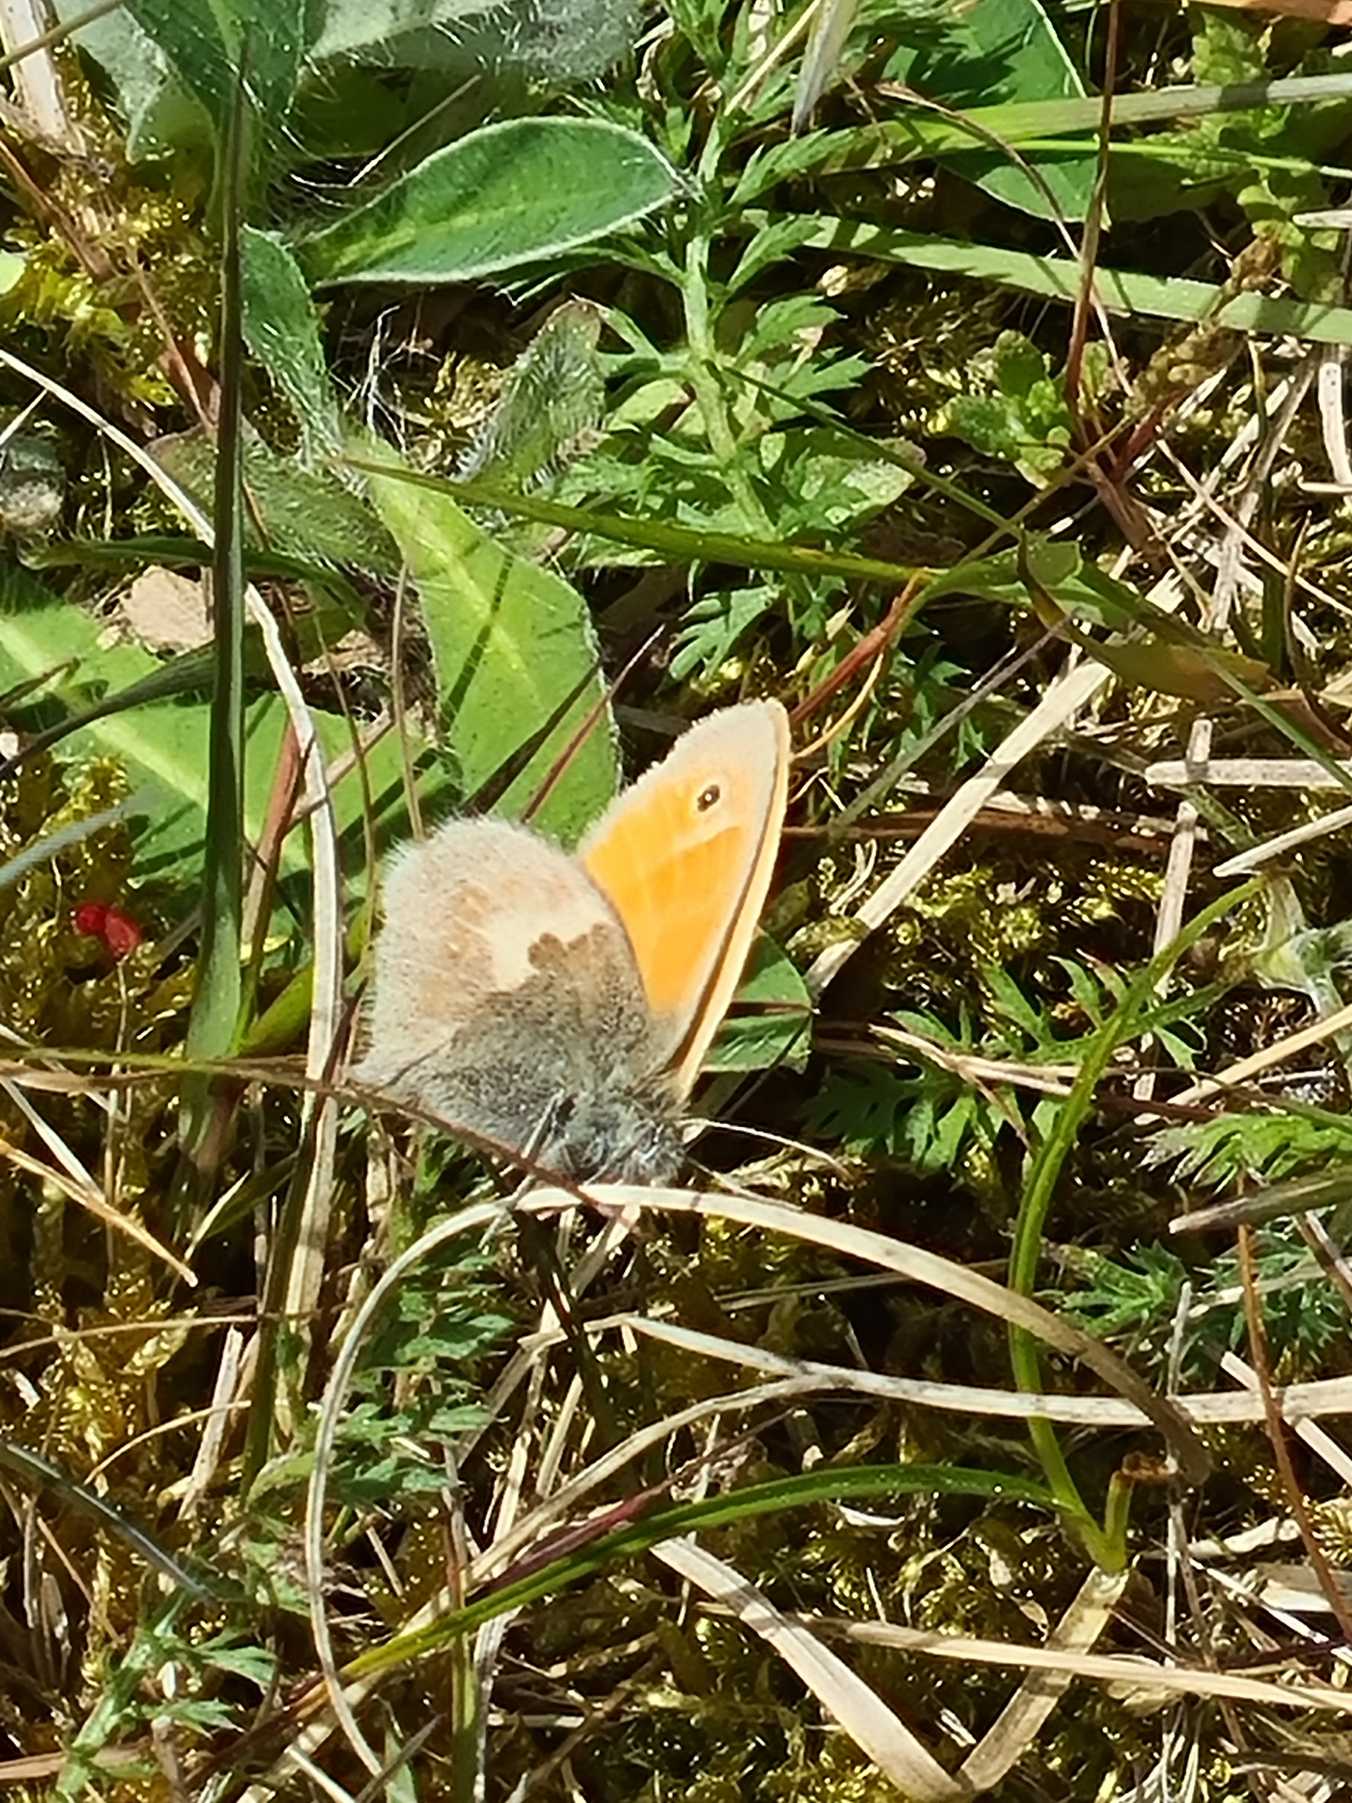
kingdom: Animalia
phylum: Arthropoda
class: Insecta
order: Lepidoptera
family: Nymphalidae
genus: Coenonympha
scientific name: Coenonympha pamphilus
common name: Okkergul randøje
